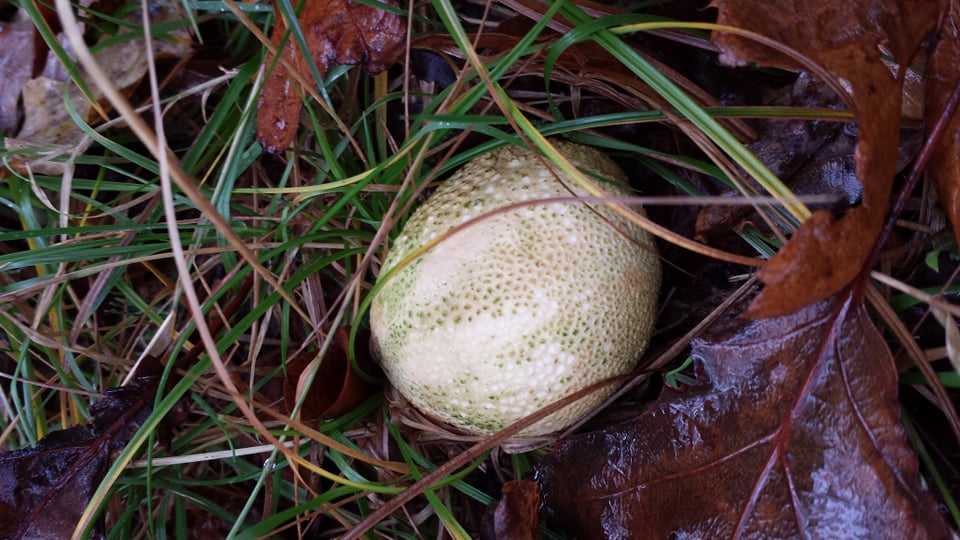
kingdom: Fungi
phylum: Basidiomycota
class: Agaricomycetes
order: Boletales
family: Sclerodermataceae
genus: Scleroderma
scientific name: Scleroderma citrinum
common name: almindelig bruskbold
